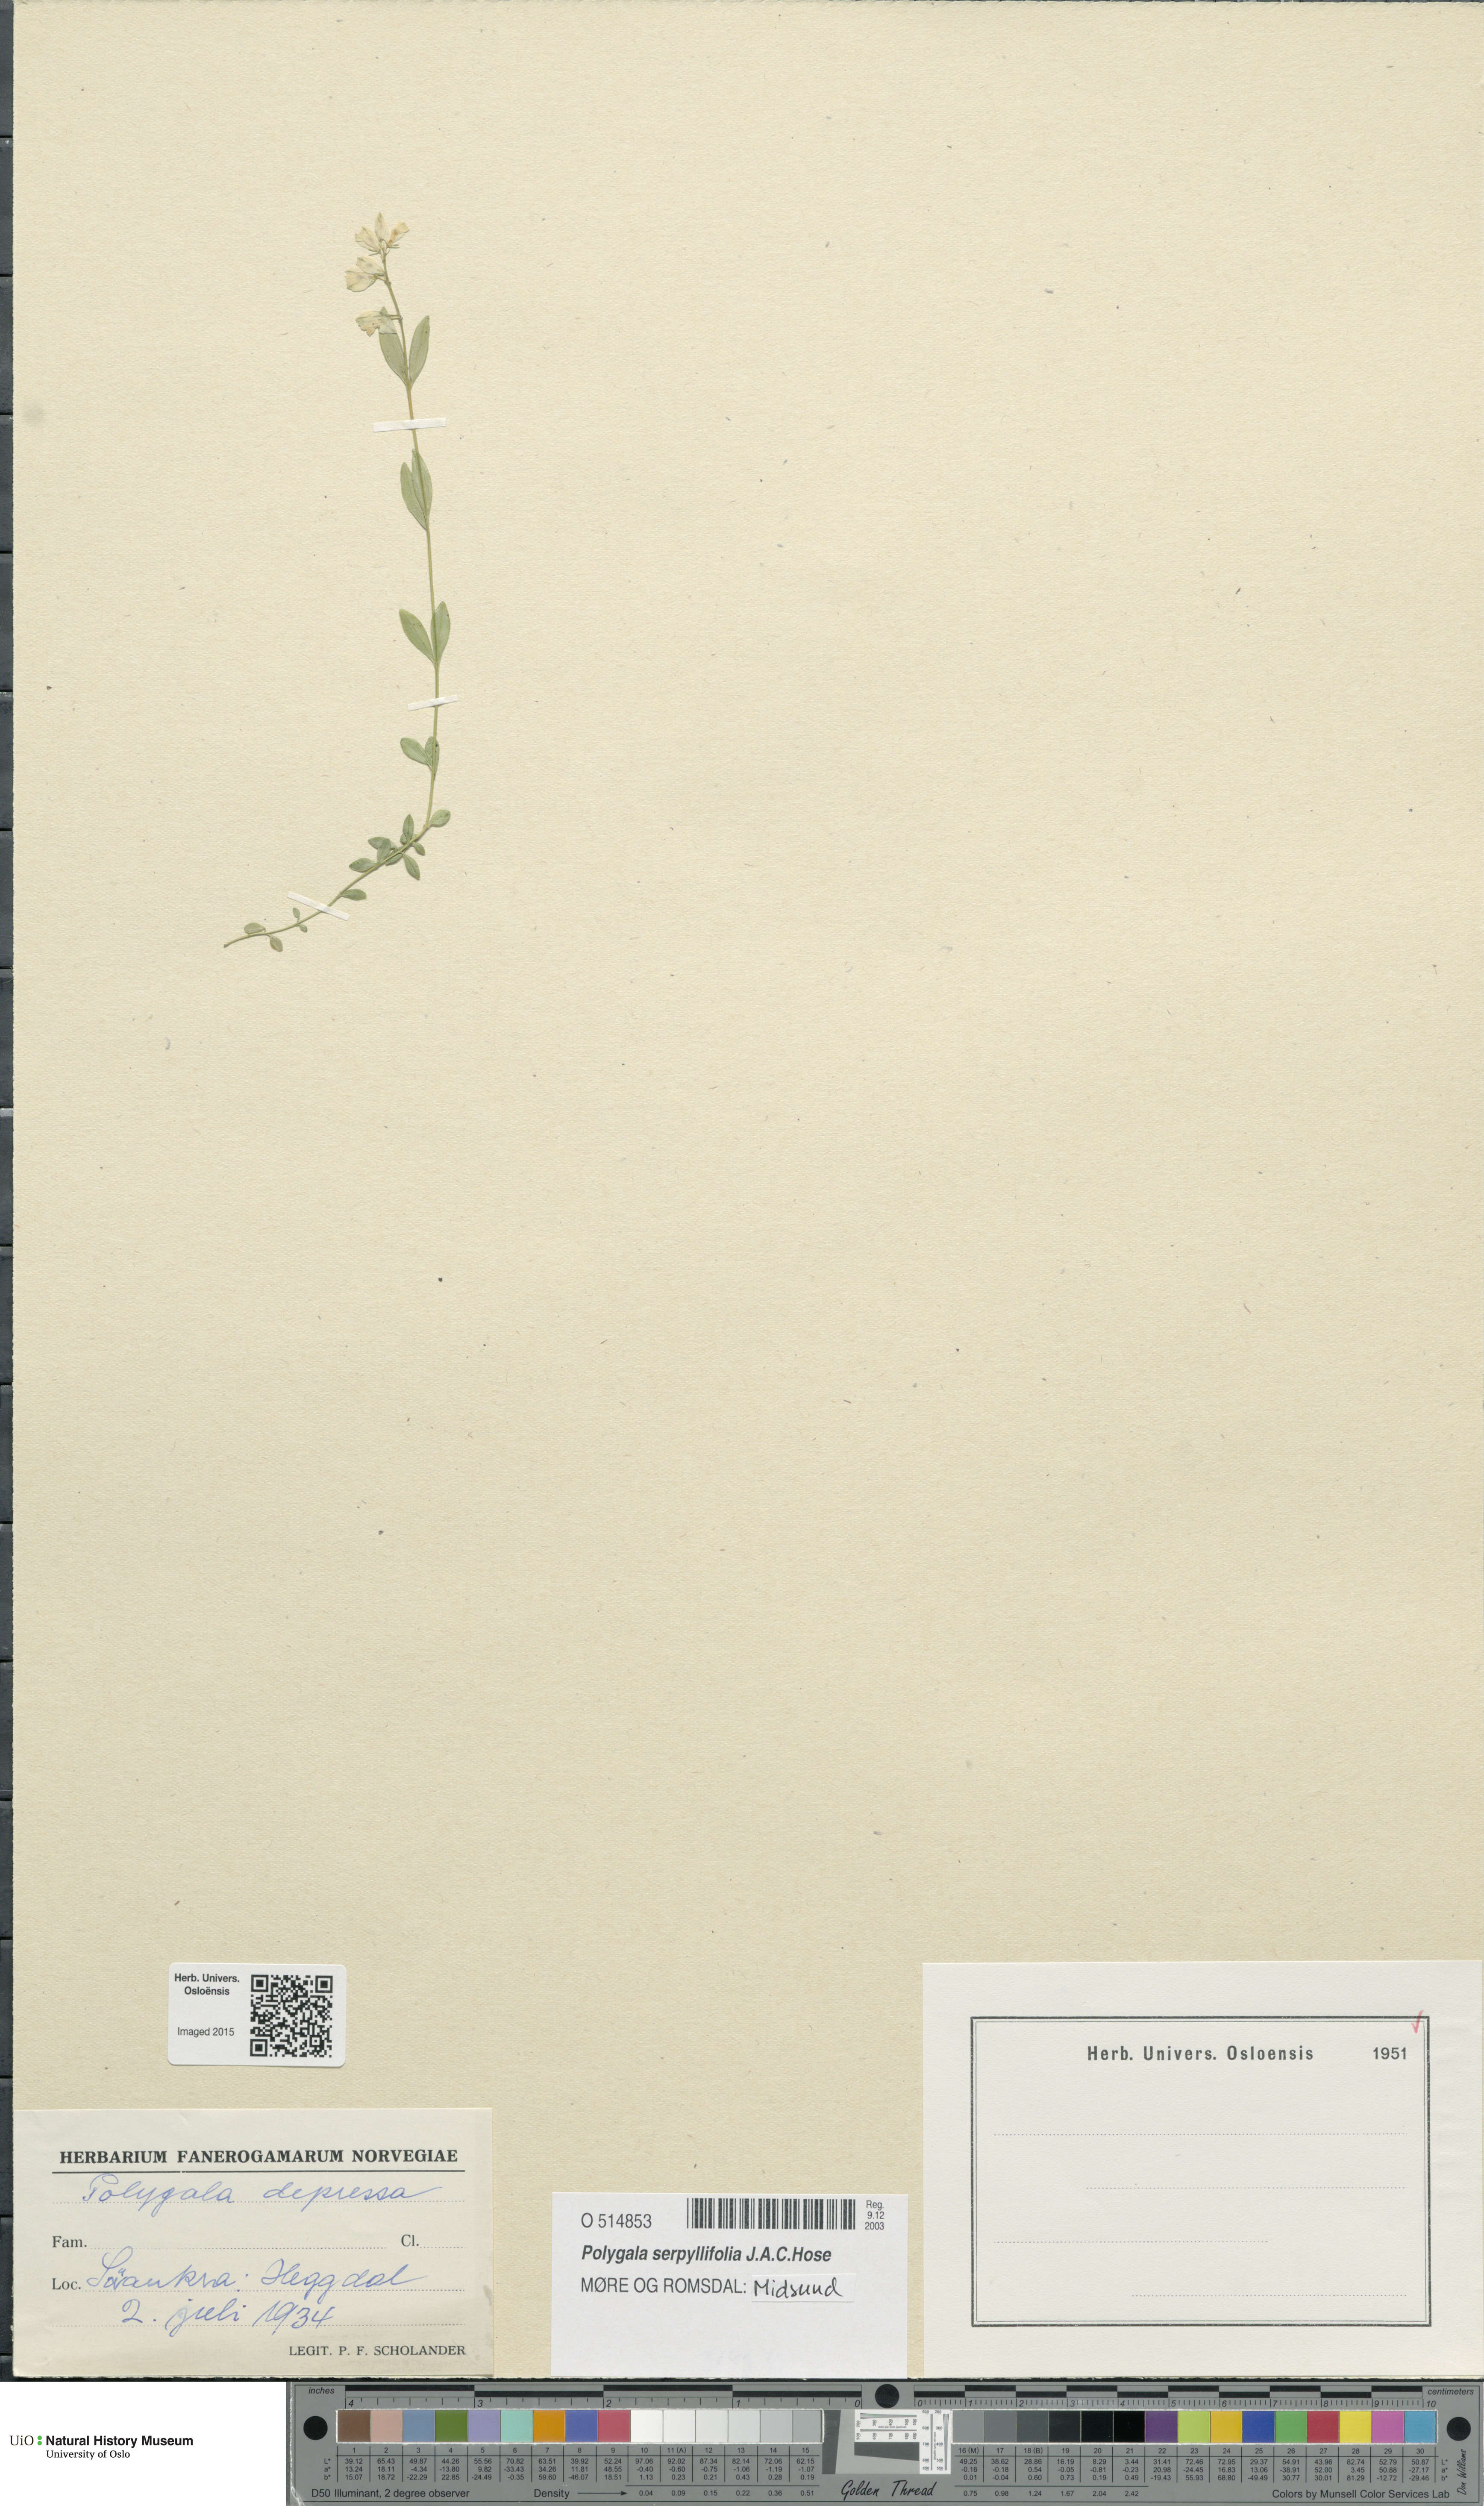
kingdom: Plantae
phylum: Tracheophyta
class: Magnoliopsida
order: Fabales
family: Polygalaceae
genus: Polygala
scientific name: Polygala serpyllifolia
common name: Heath milkwort
